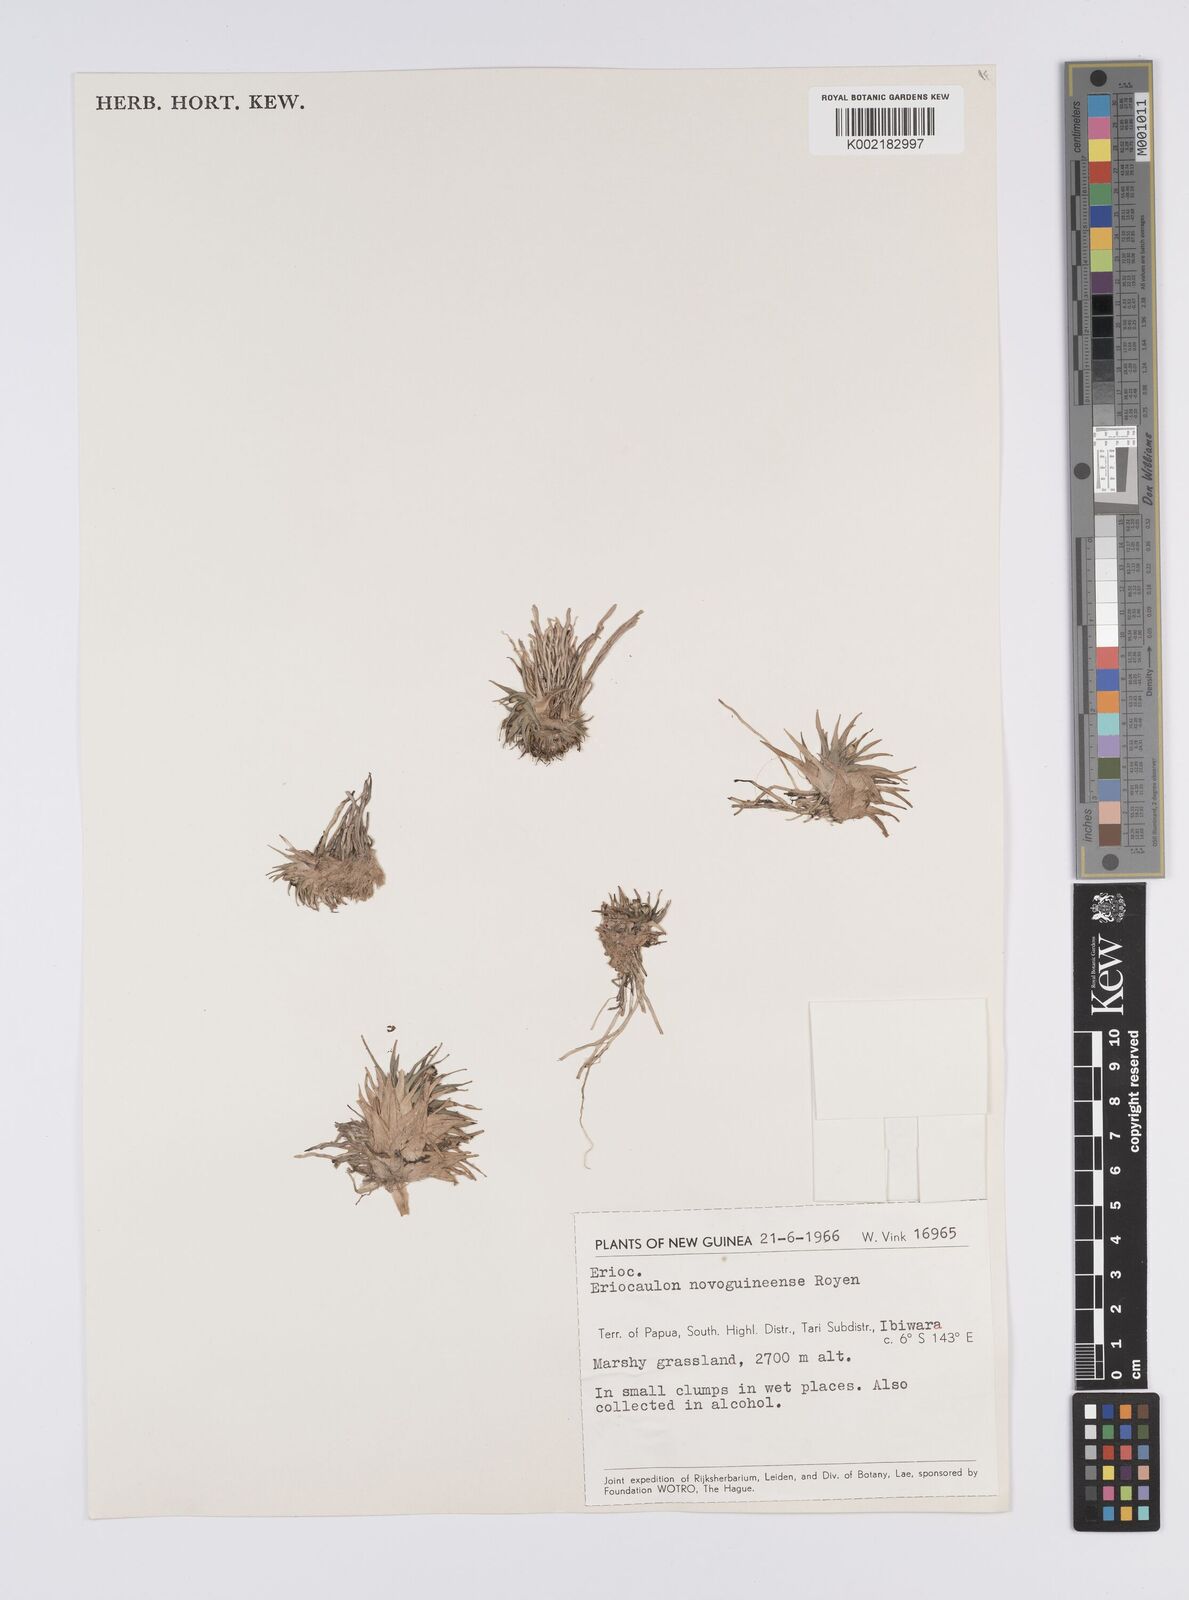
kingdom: Plantae
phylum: Tracheophyta
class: Liliopsida
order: Poales
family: Eriocaulaceae
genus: Eriocaulon
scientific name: Eriocaulon novoguineense
